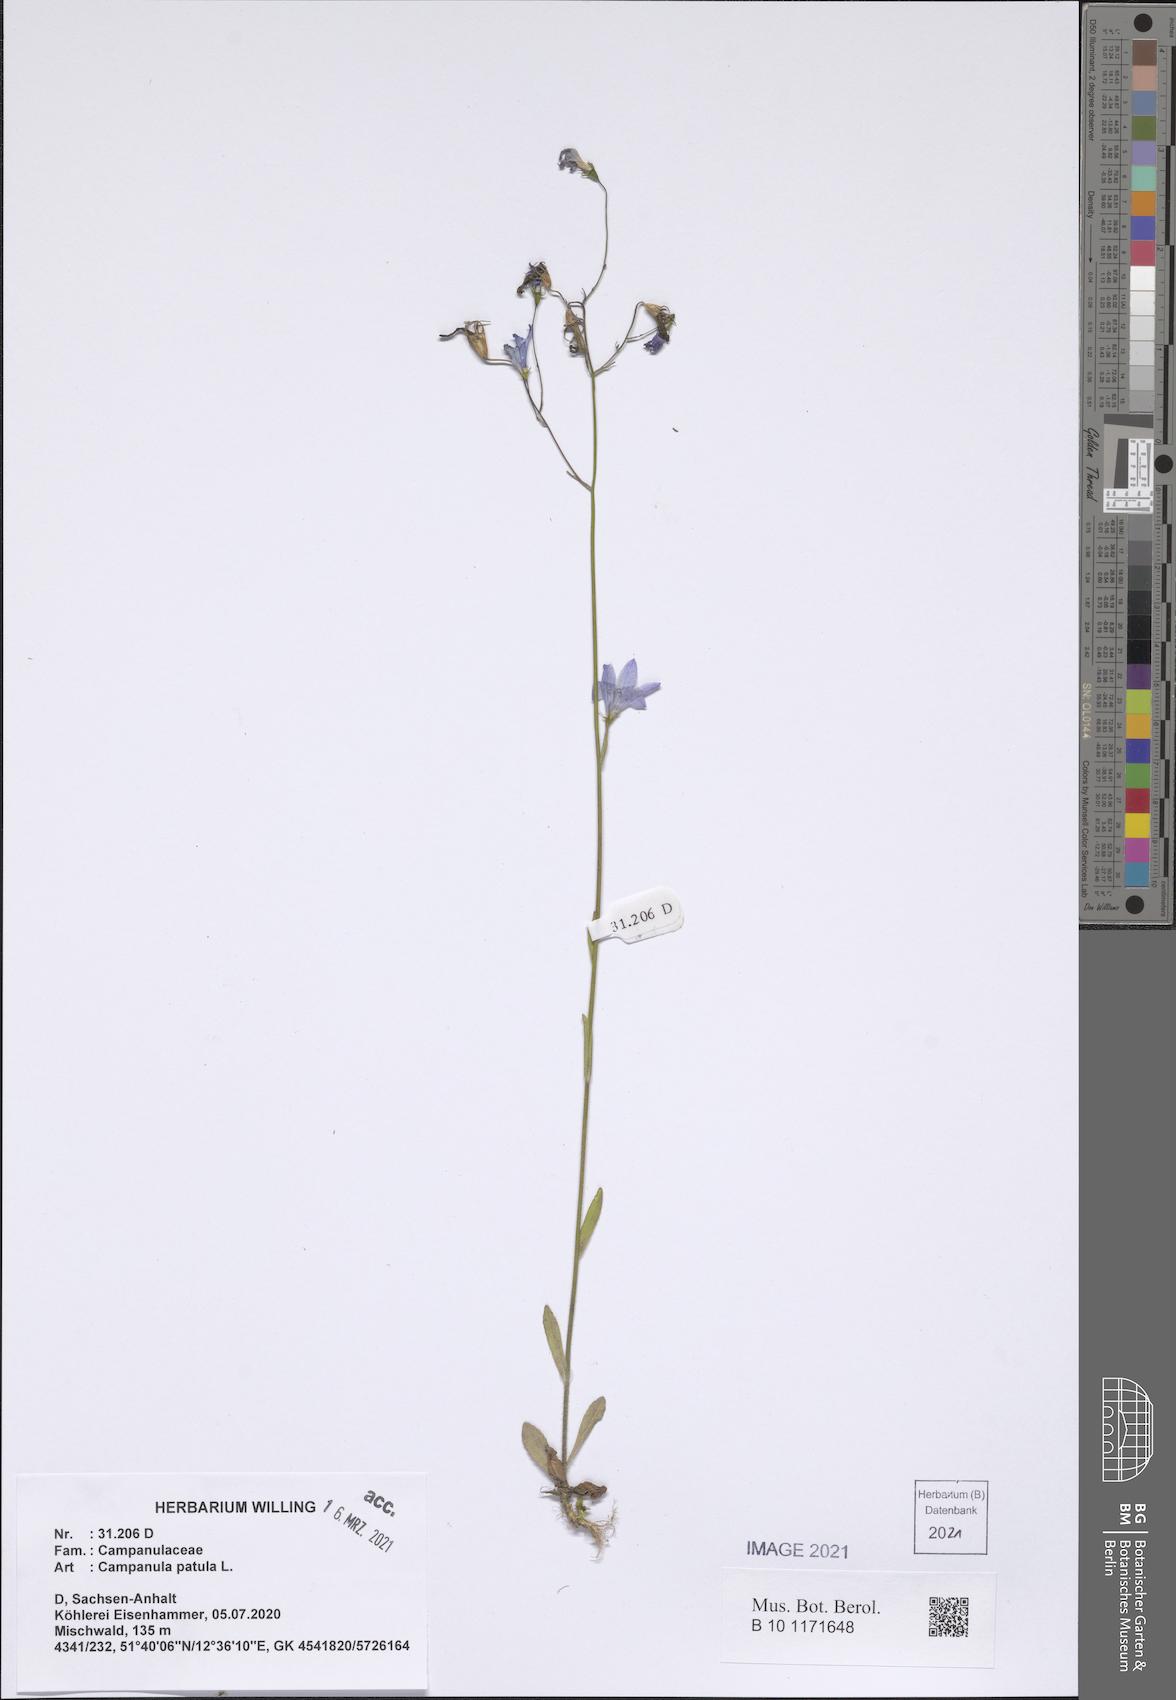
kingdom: Plantae
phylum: Tracheophyta
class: Magnoliopsida
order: Asterales
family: Campanulaceae
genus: Campanula
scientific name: Campanula patula
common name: Spreading bellflower
